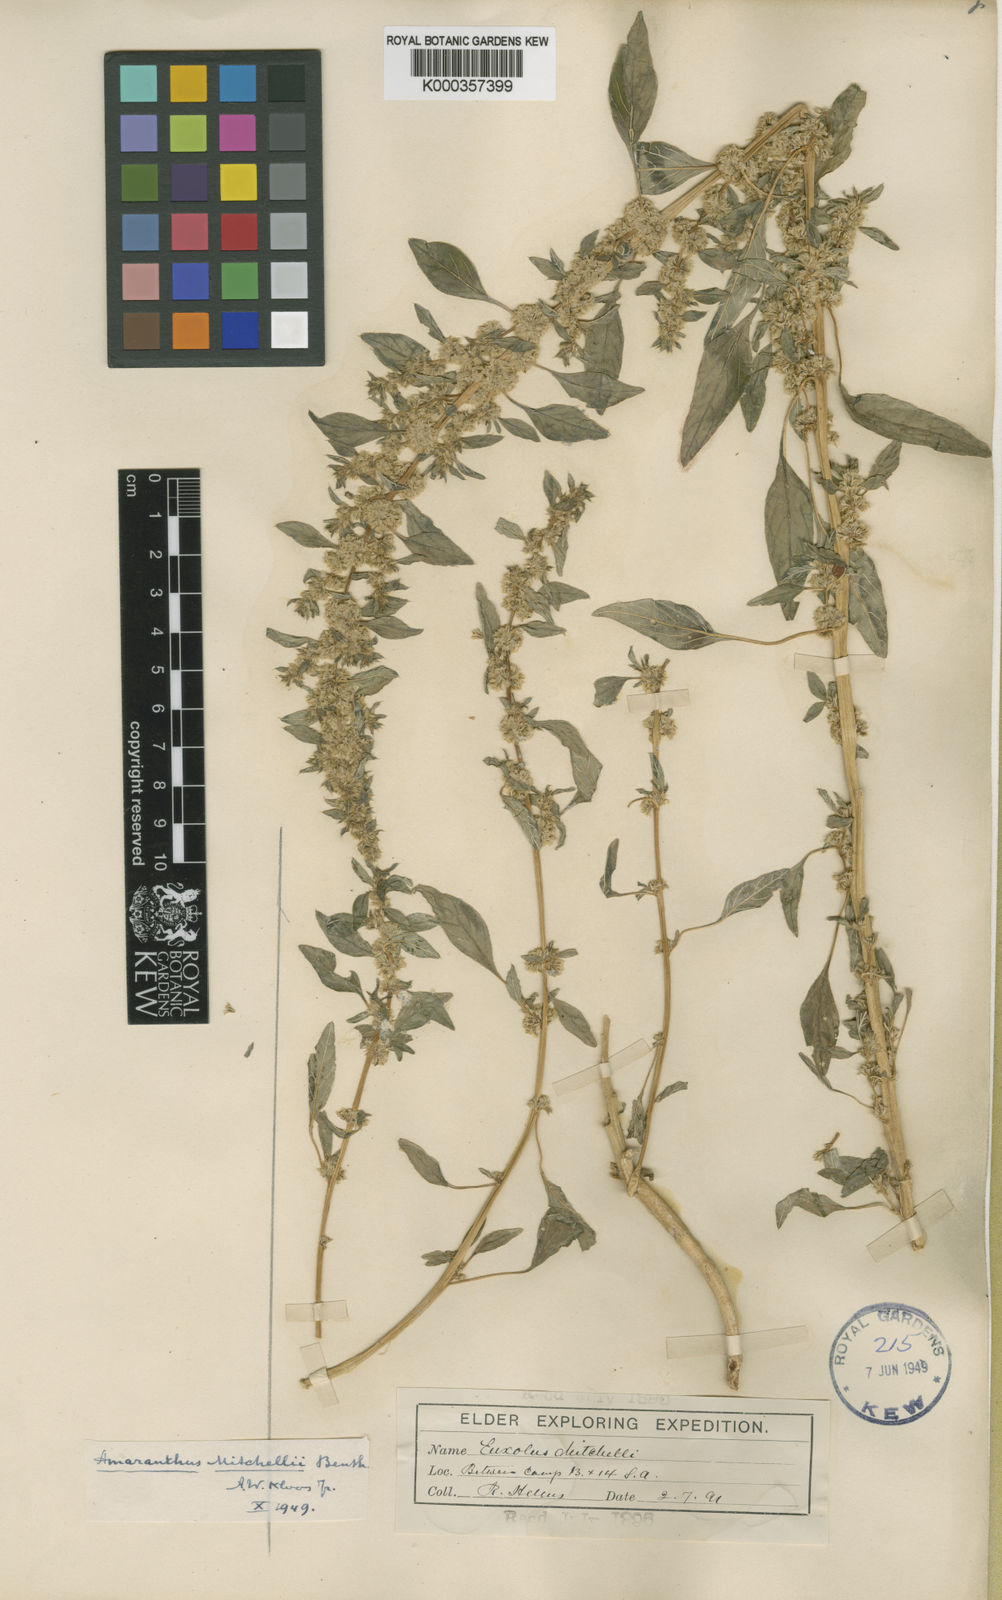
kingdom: Plantae
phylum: Tracheophyta
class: Magnoliopsida
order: Caryophyllales
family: Amaranthaceae
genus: Amaranthus
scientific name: Amaranthus mitchellii
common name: Mitchell's amaranth
